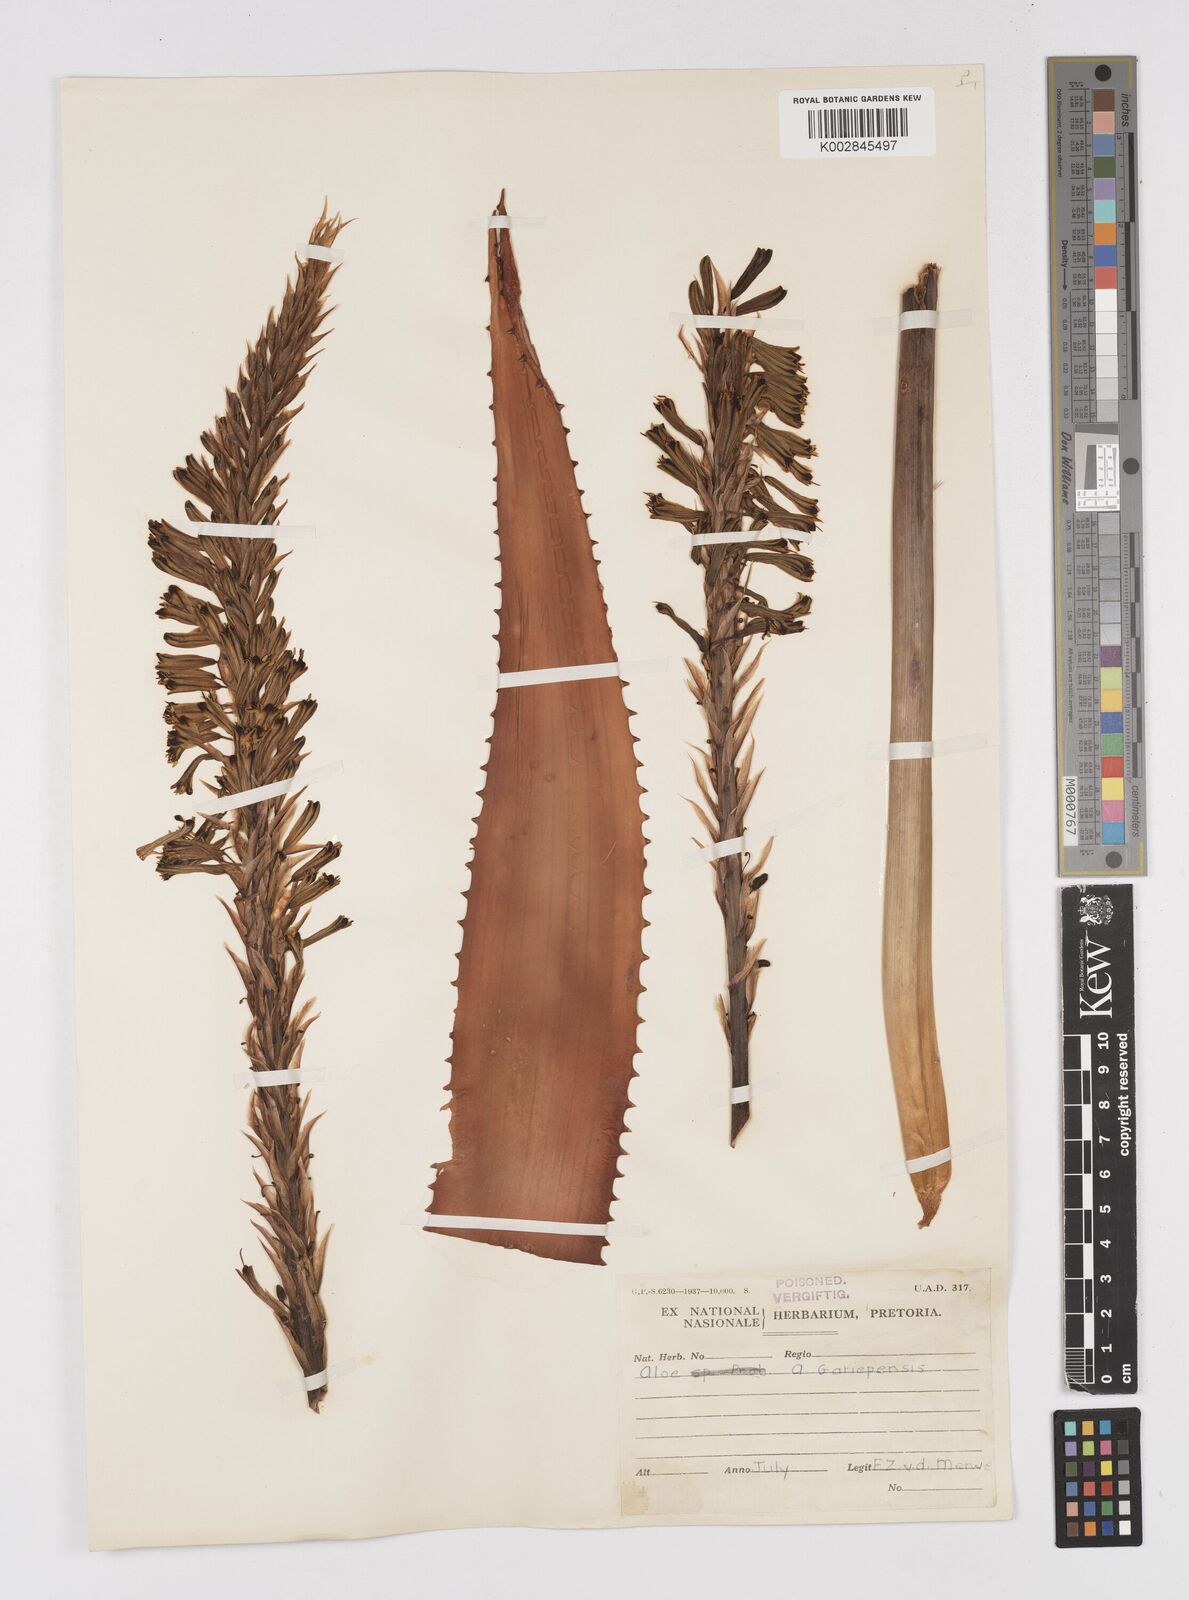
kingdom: Plantae
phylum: Tracheophyta
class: Liliopsida
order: Asparagales
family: Asphodelaceae
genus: Aloe
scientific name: Aloe gariepensis
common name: Orange river aloe
